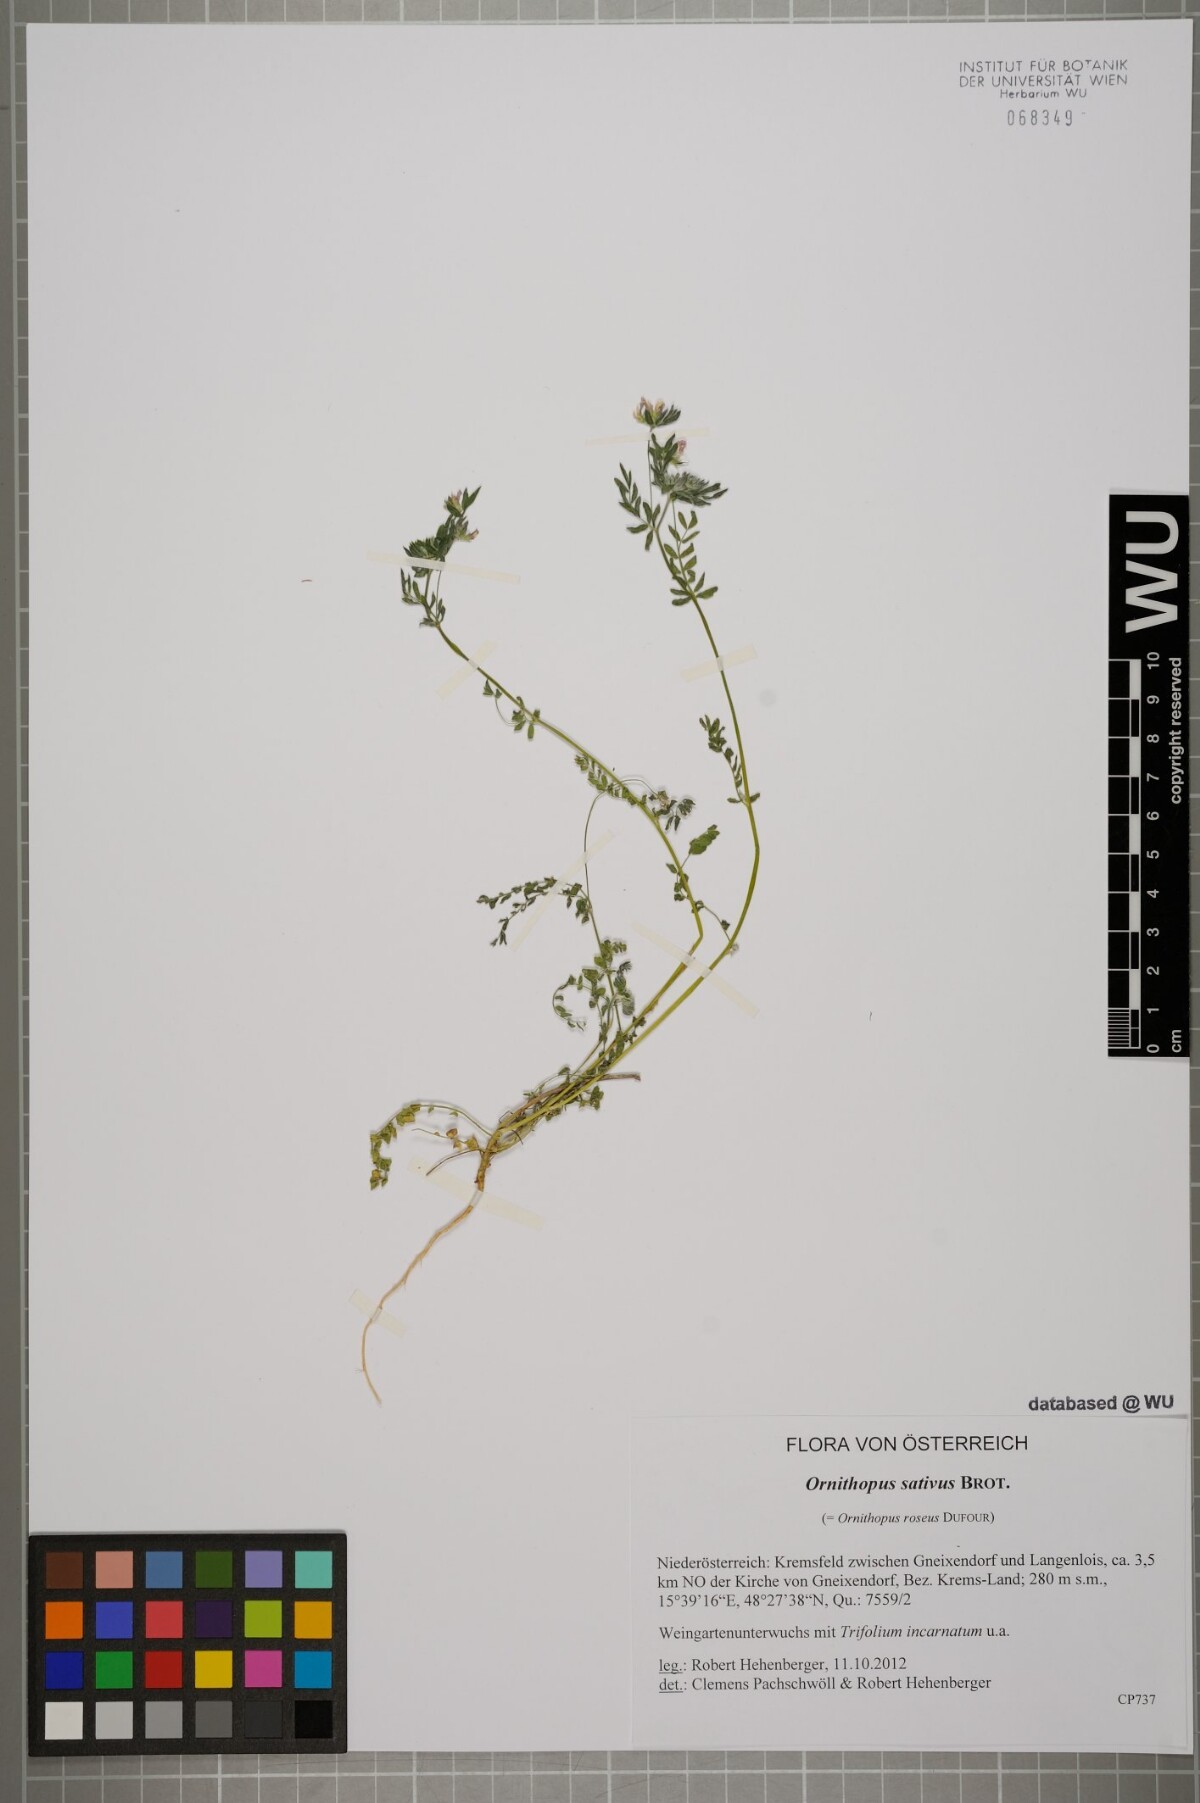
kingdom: Plantae
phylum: Tracheophyta
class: Magnoliopsida
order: Fabales
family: Fabaceae
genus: Ornithopus
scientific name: Ornithopus sativus
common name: Serradella
